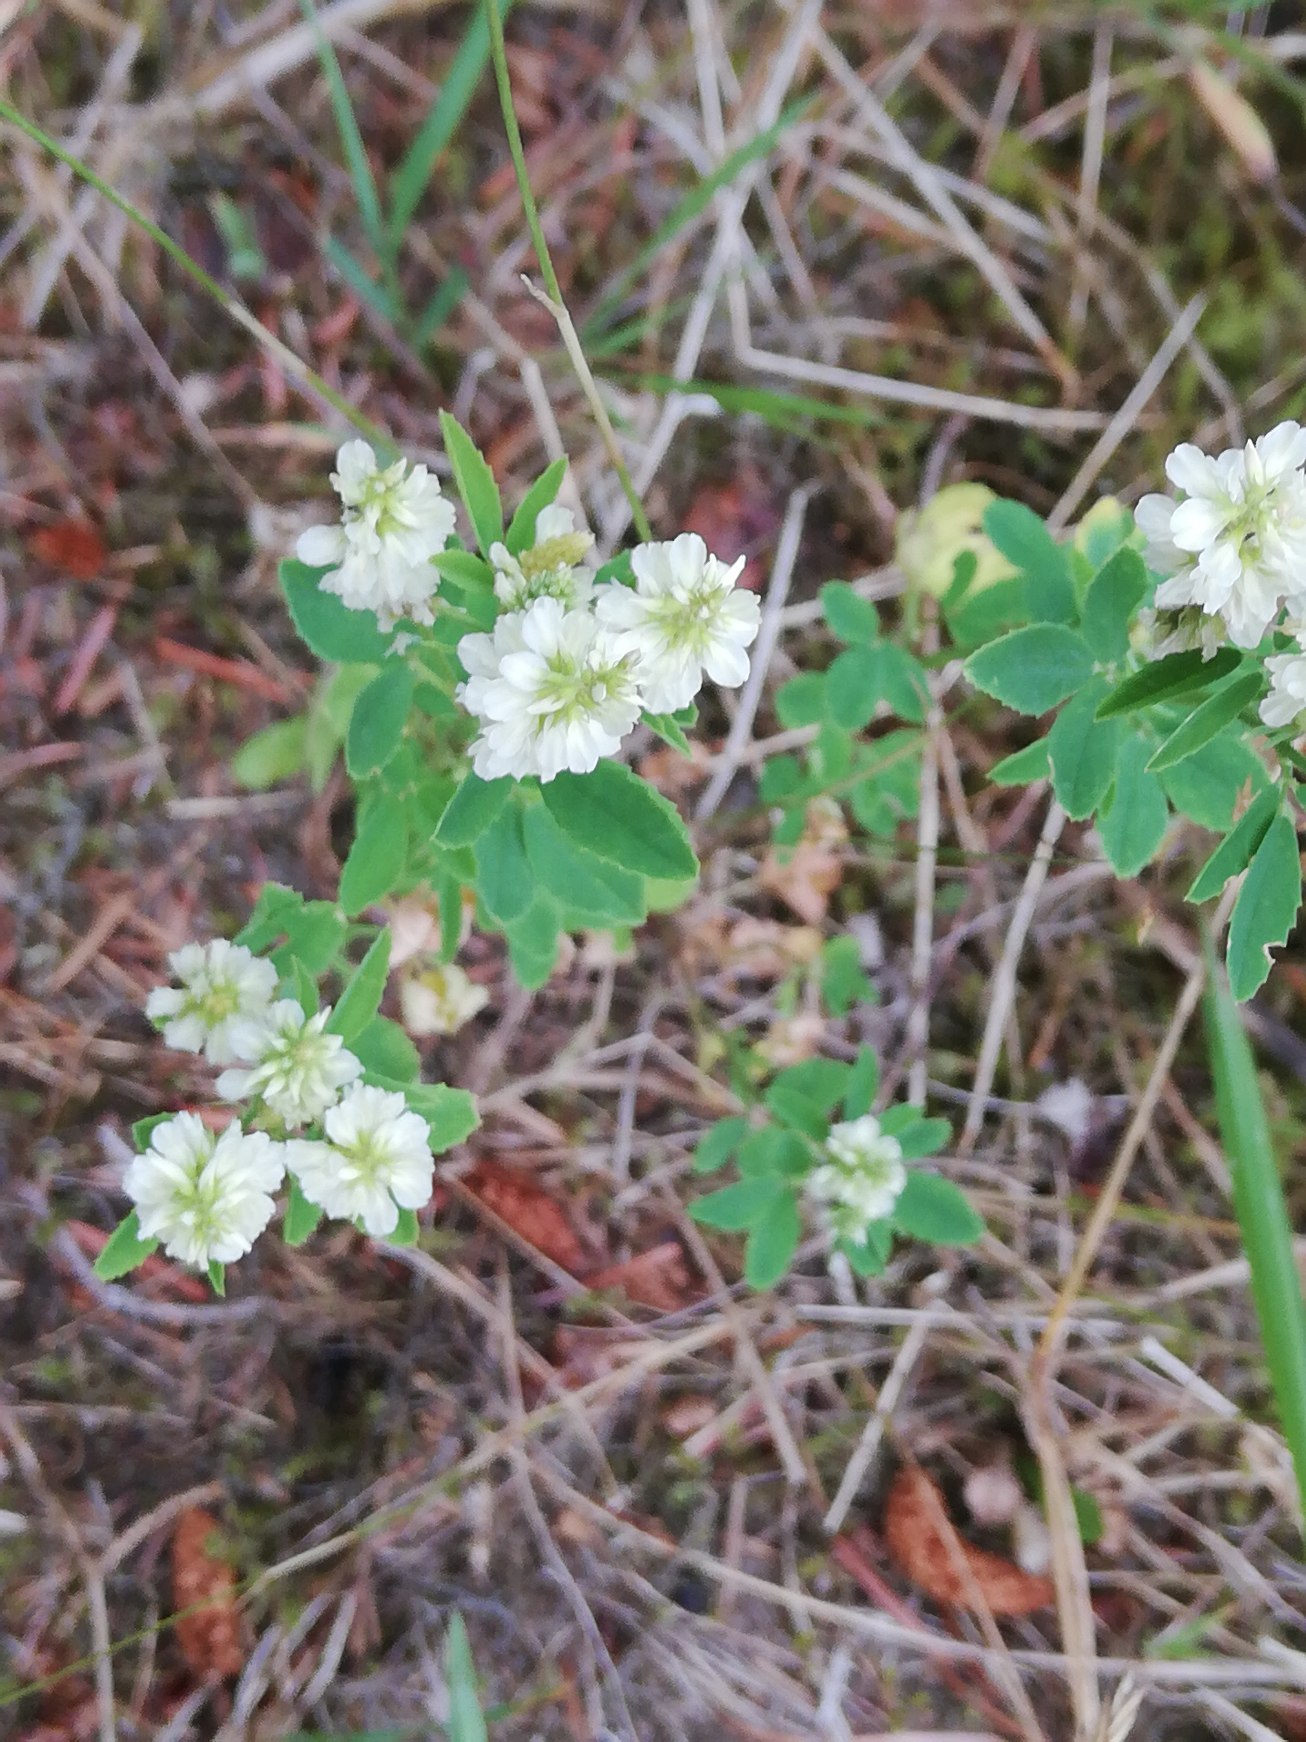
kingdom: Plantae
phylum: Tracheophyta
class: Magnoliopsida
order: Fabales
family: Fabaceae
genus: Melilotus
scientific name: Melilotus albus
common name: Hvid stenkløver
